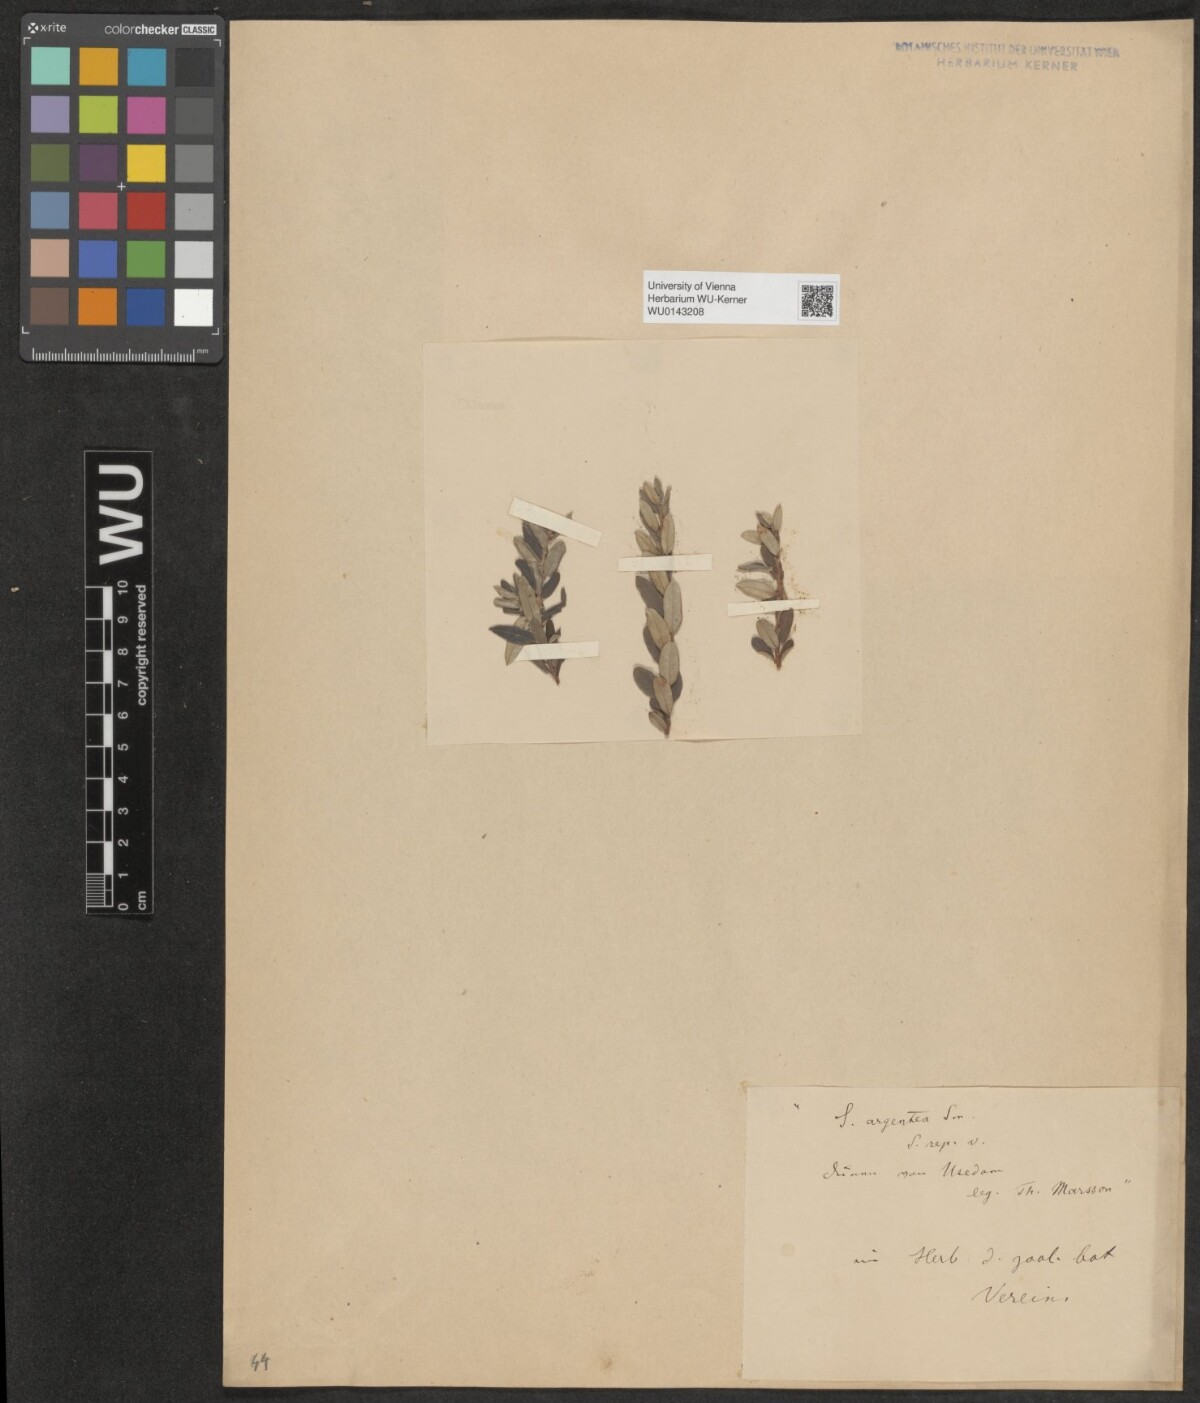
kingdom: Plantae
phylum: Tracheophyta
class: Magnoliopsida
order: Malpighiales
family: Salicaceae
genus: Salix
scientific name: Salix repens
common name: Creeping willow
